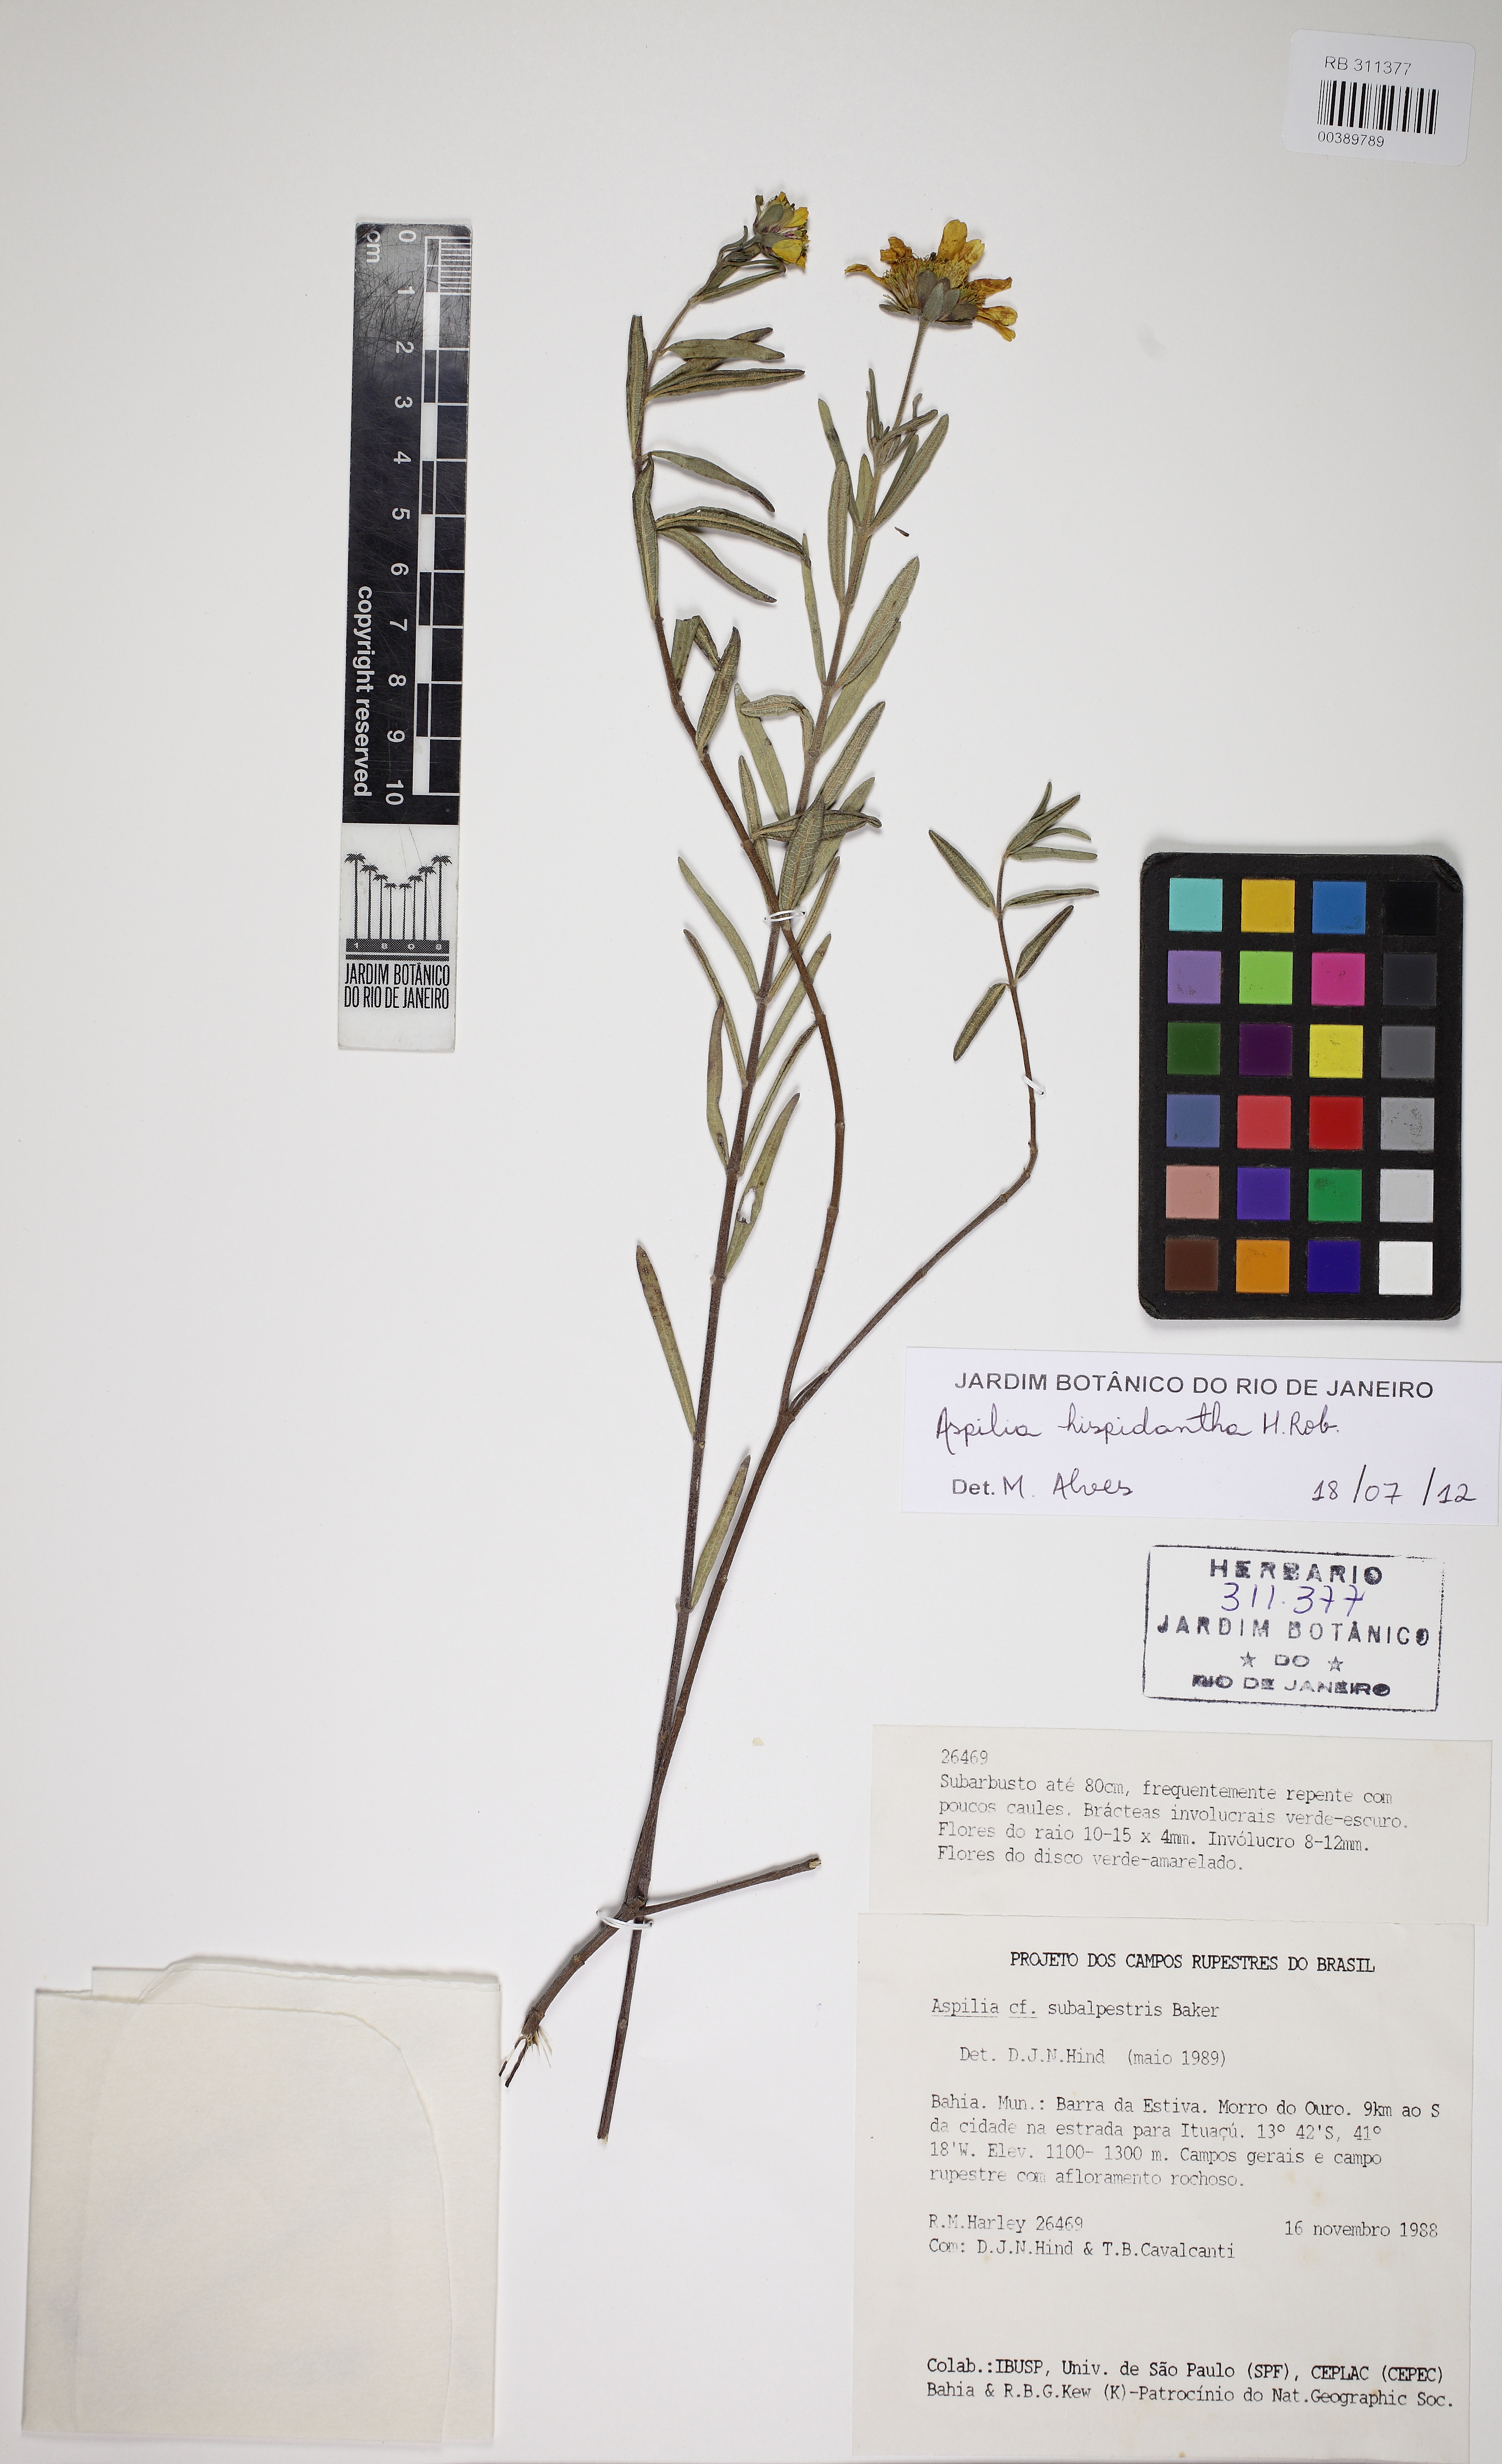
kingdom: Plantae
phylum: Tracheophyta
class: Magnoliopsida
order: Asterales
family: Asteraceae
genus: Wedelia
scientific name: Wedelia subalpestris
